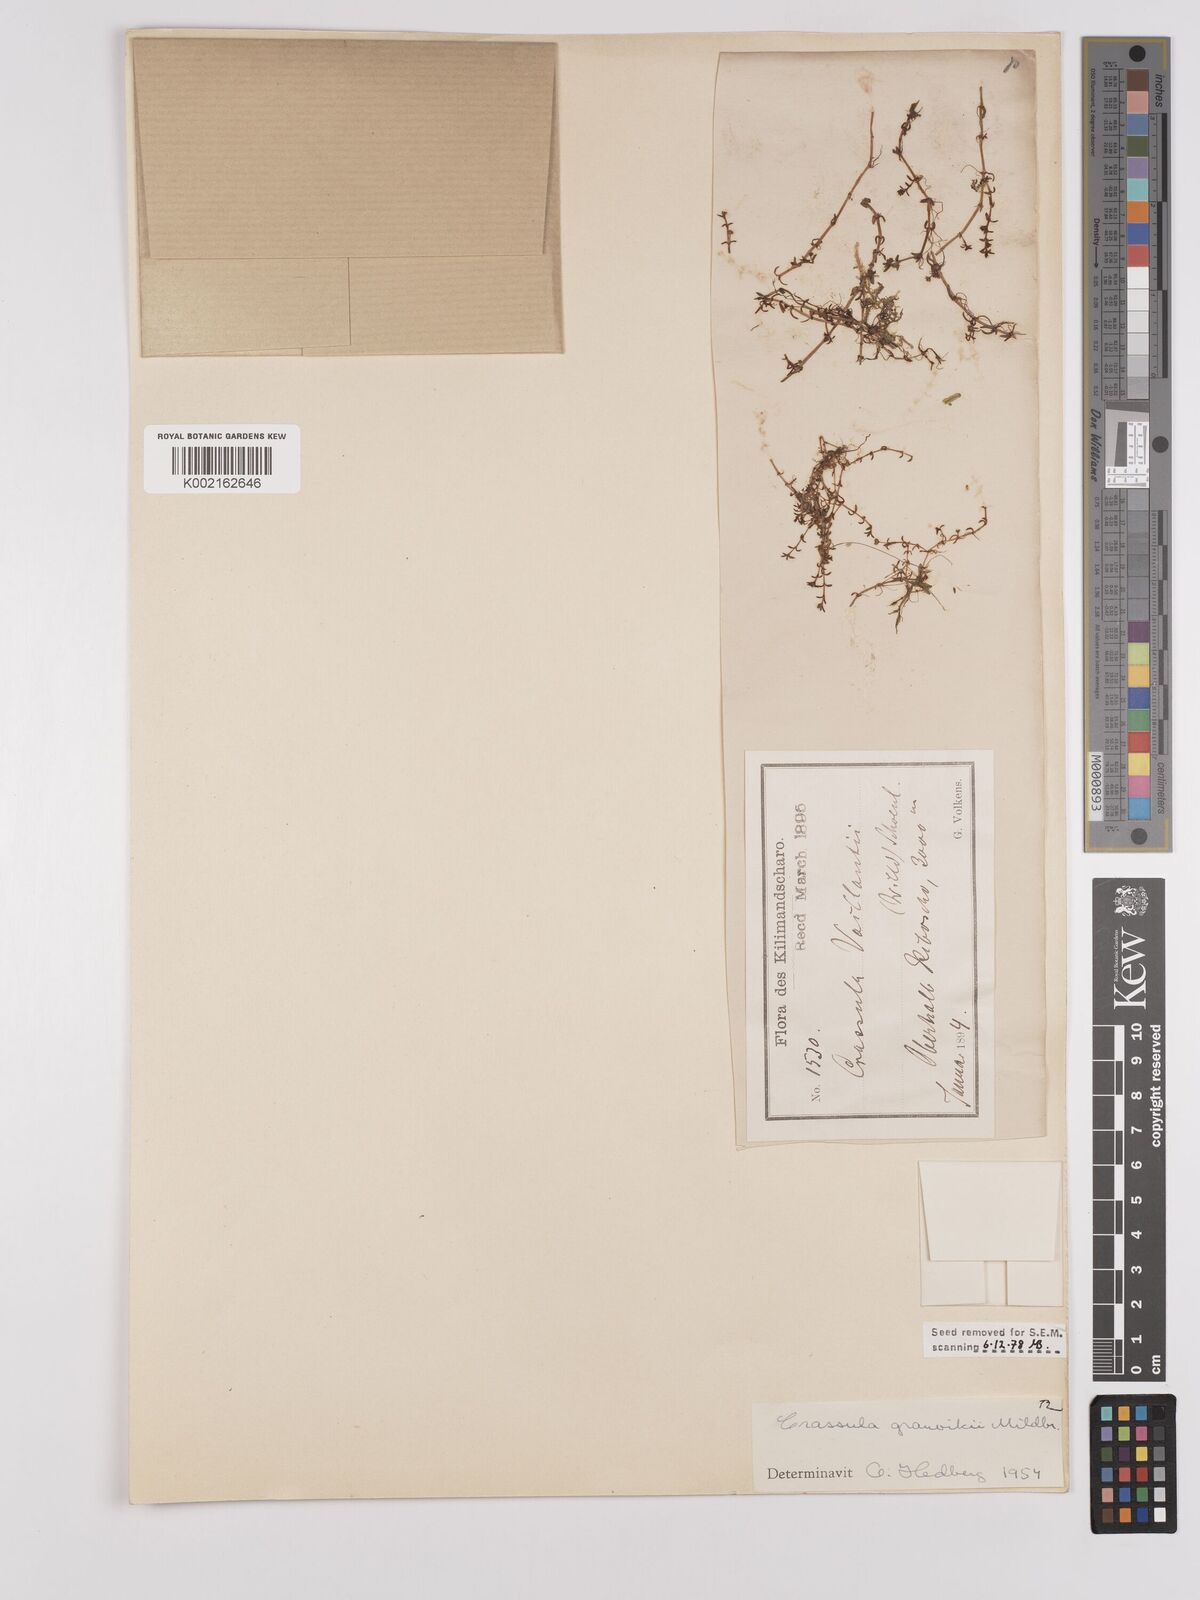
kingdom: Plantae
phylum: Tracheophyta
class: Magnoliopsida
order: Saxifragales
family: Crassulaceae
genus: Crassula
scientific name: Crassula granvikii
